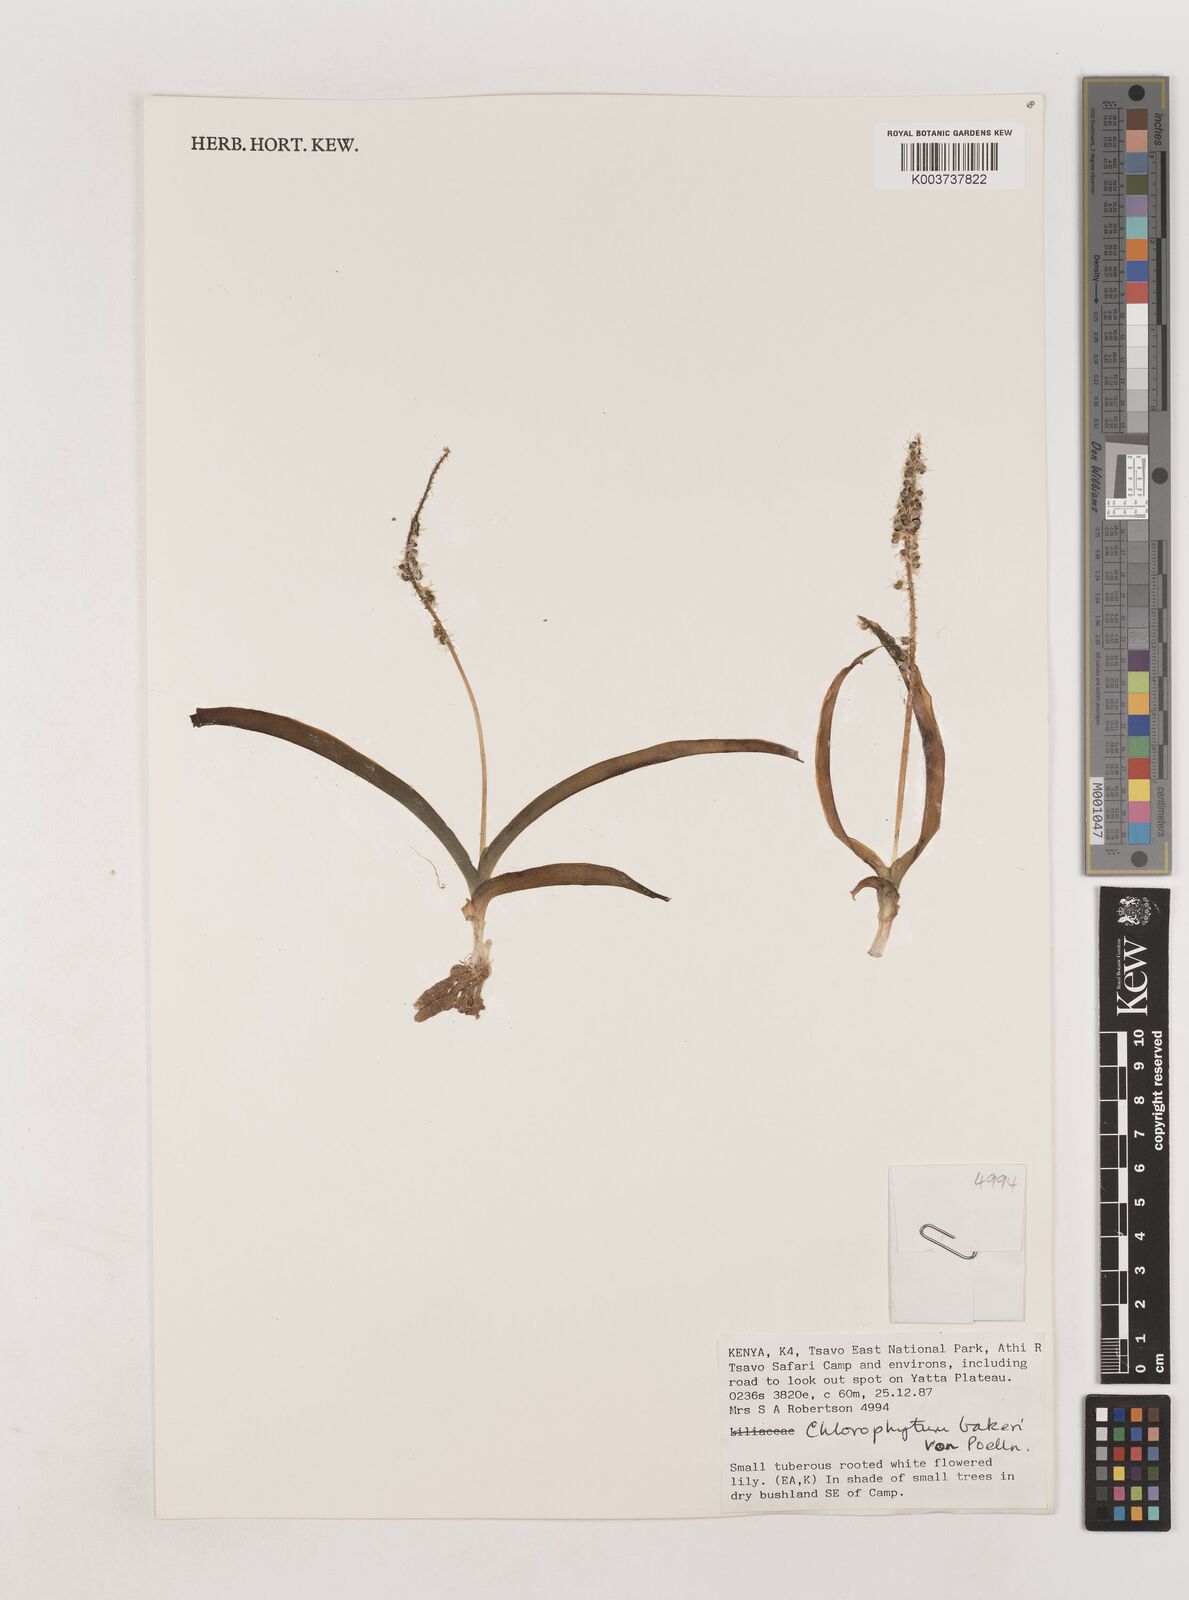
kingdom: Plantae
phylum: Tracheophyta
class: Liliopsida
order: Asparagales
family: Asparagaceae
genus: Chlorophytum
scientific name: Chlorophytum africanum
